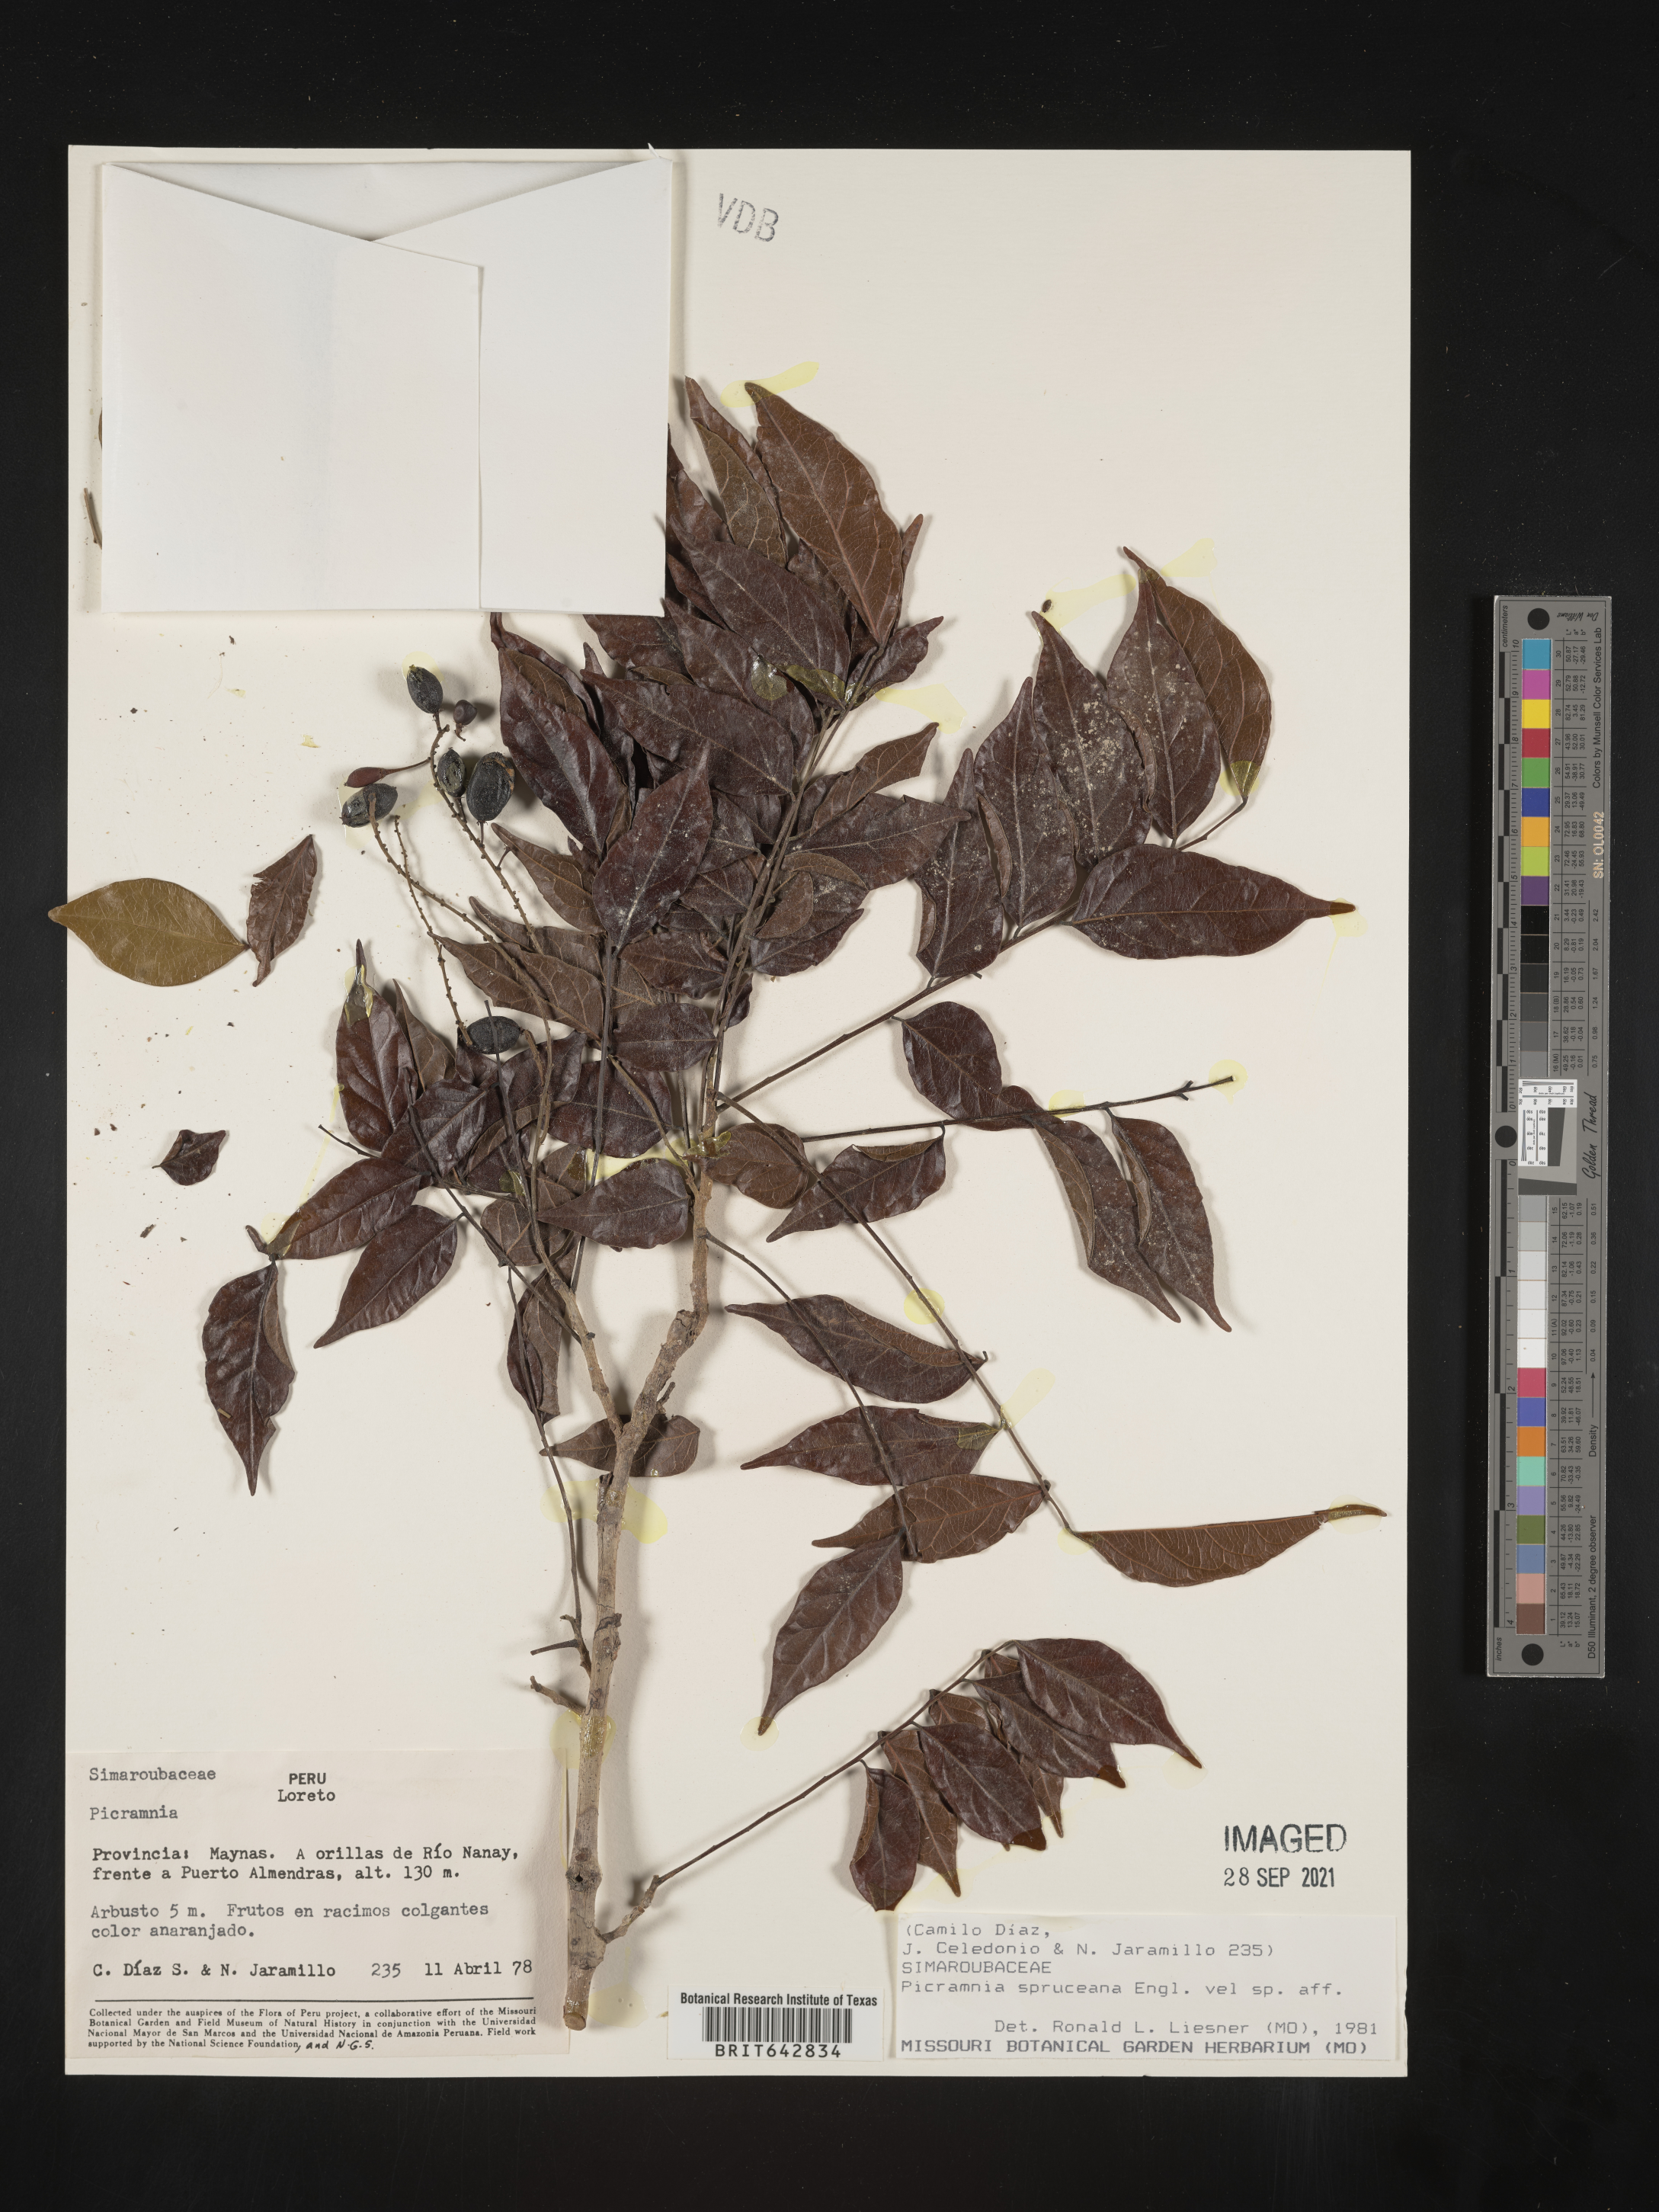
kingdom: Plantae
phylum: Tracheophyta
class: Magnoliopsida
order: Picramniales
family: Picramniaceae
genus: Picramnia
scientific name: Picramnia
